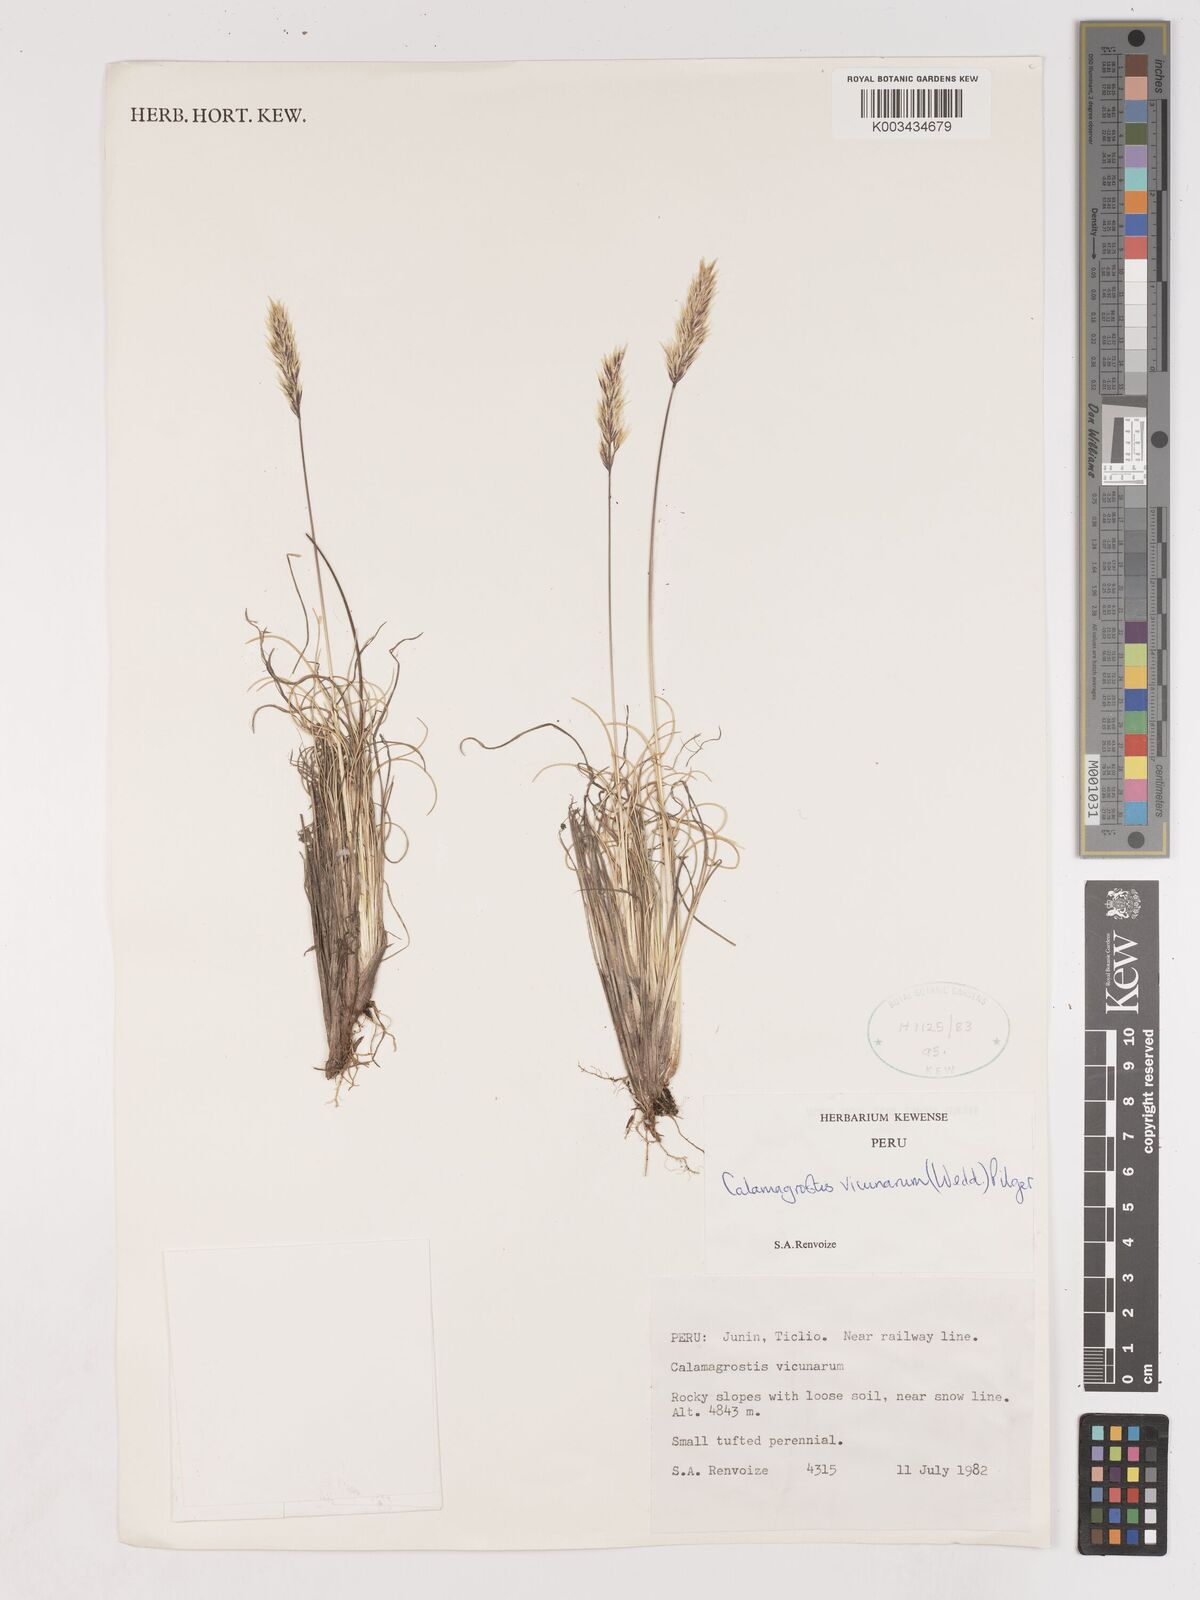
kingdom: Plantae
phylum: Tracheophyta
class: Liliopsida
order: Poales
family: Poaceae
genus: Cinnagrostis
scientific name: Cinnagrostis vicunarum
